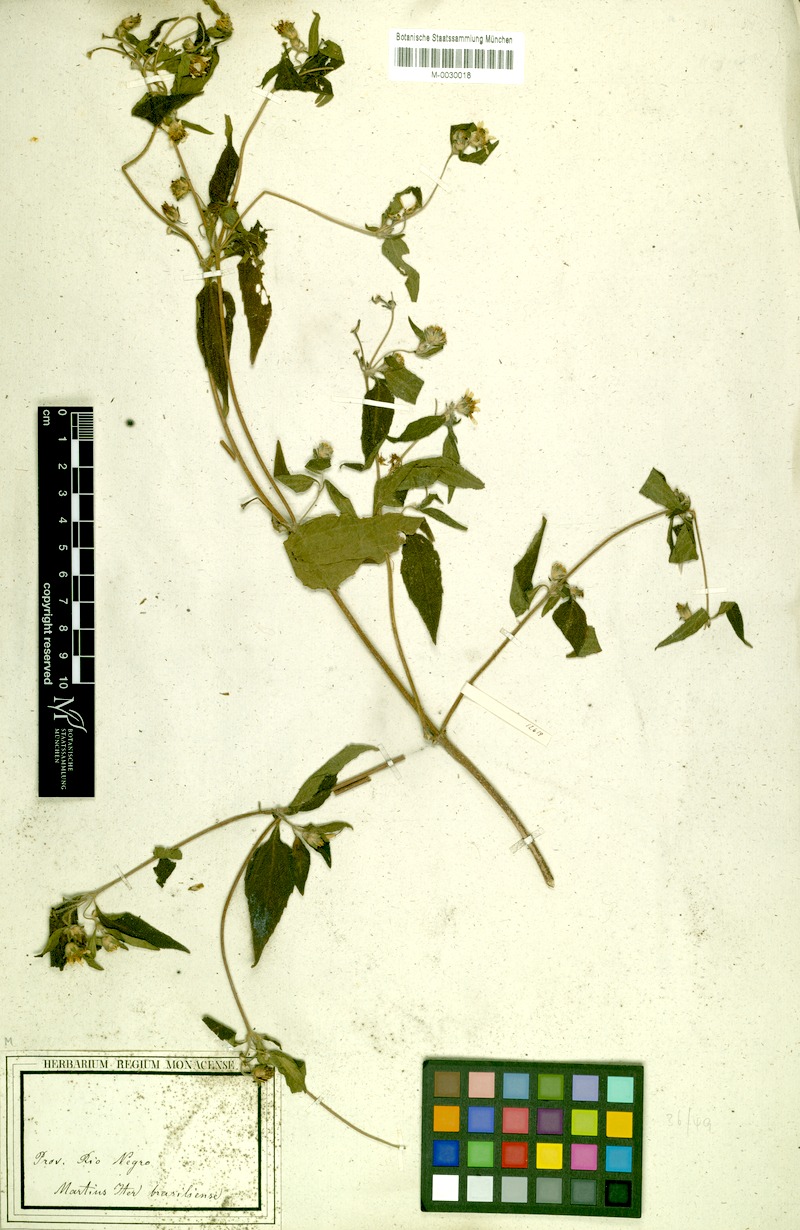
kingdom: Plantae
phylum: Tracheophyta
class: Magnoliopsida
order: Asterales
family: Asteraceae
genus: Wedelia
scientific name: Wedelia rudis
